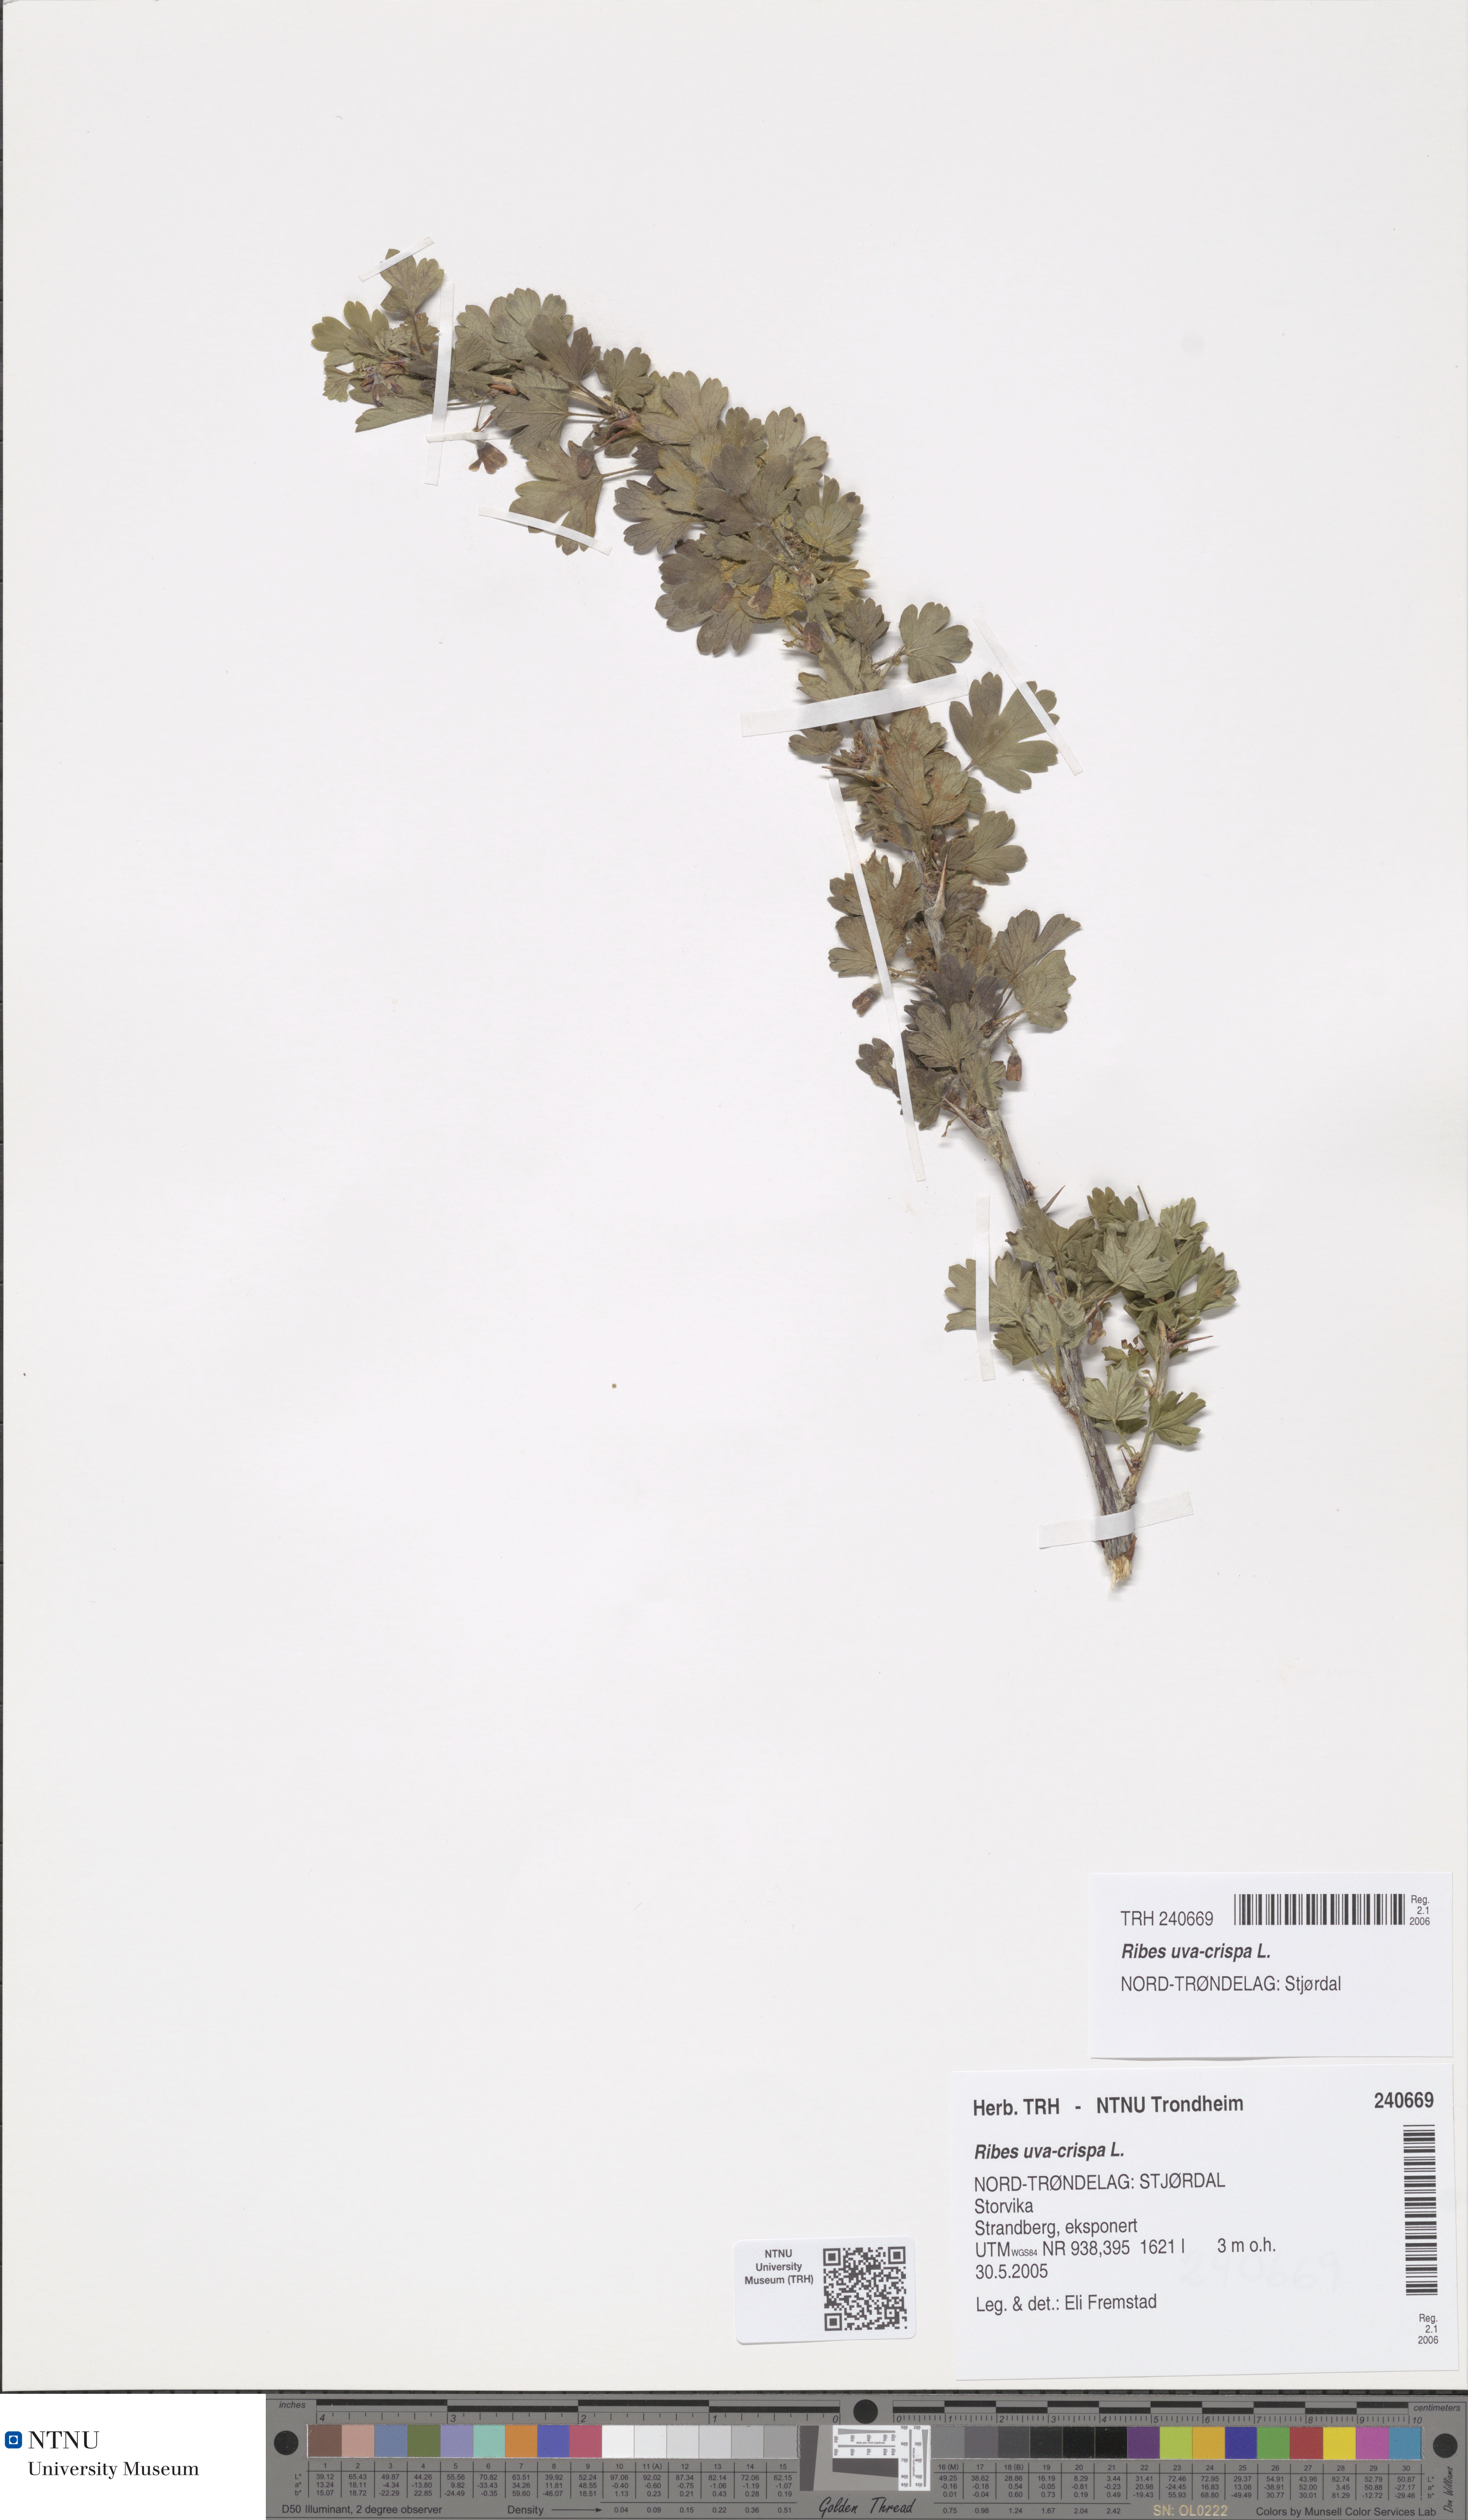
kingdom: Plantae
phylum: Tracheophyta
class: Magnoliopsida
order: Saxifragales
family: Grossulariaceae
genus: Ribes
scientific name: Ribes uva-crispa
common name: Gooseberry
